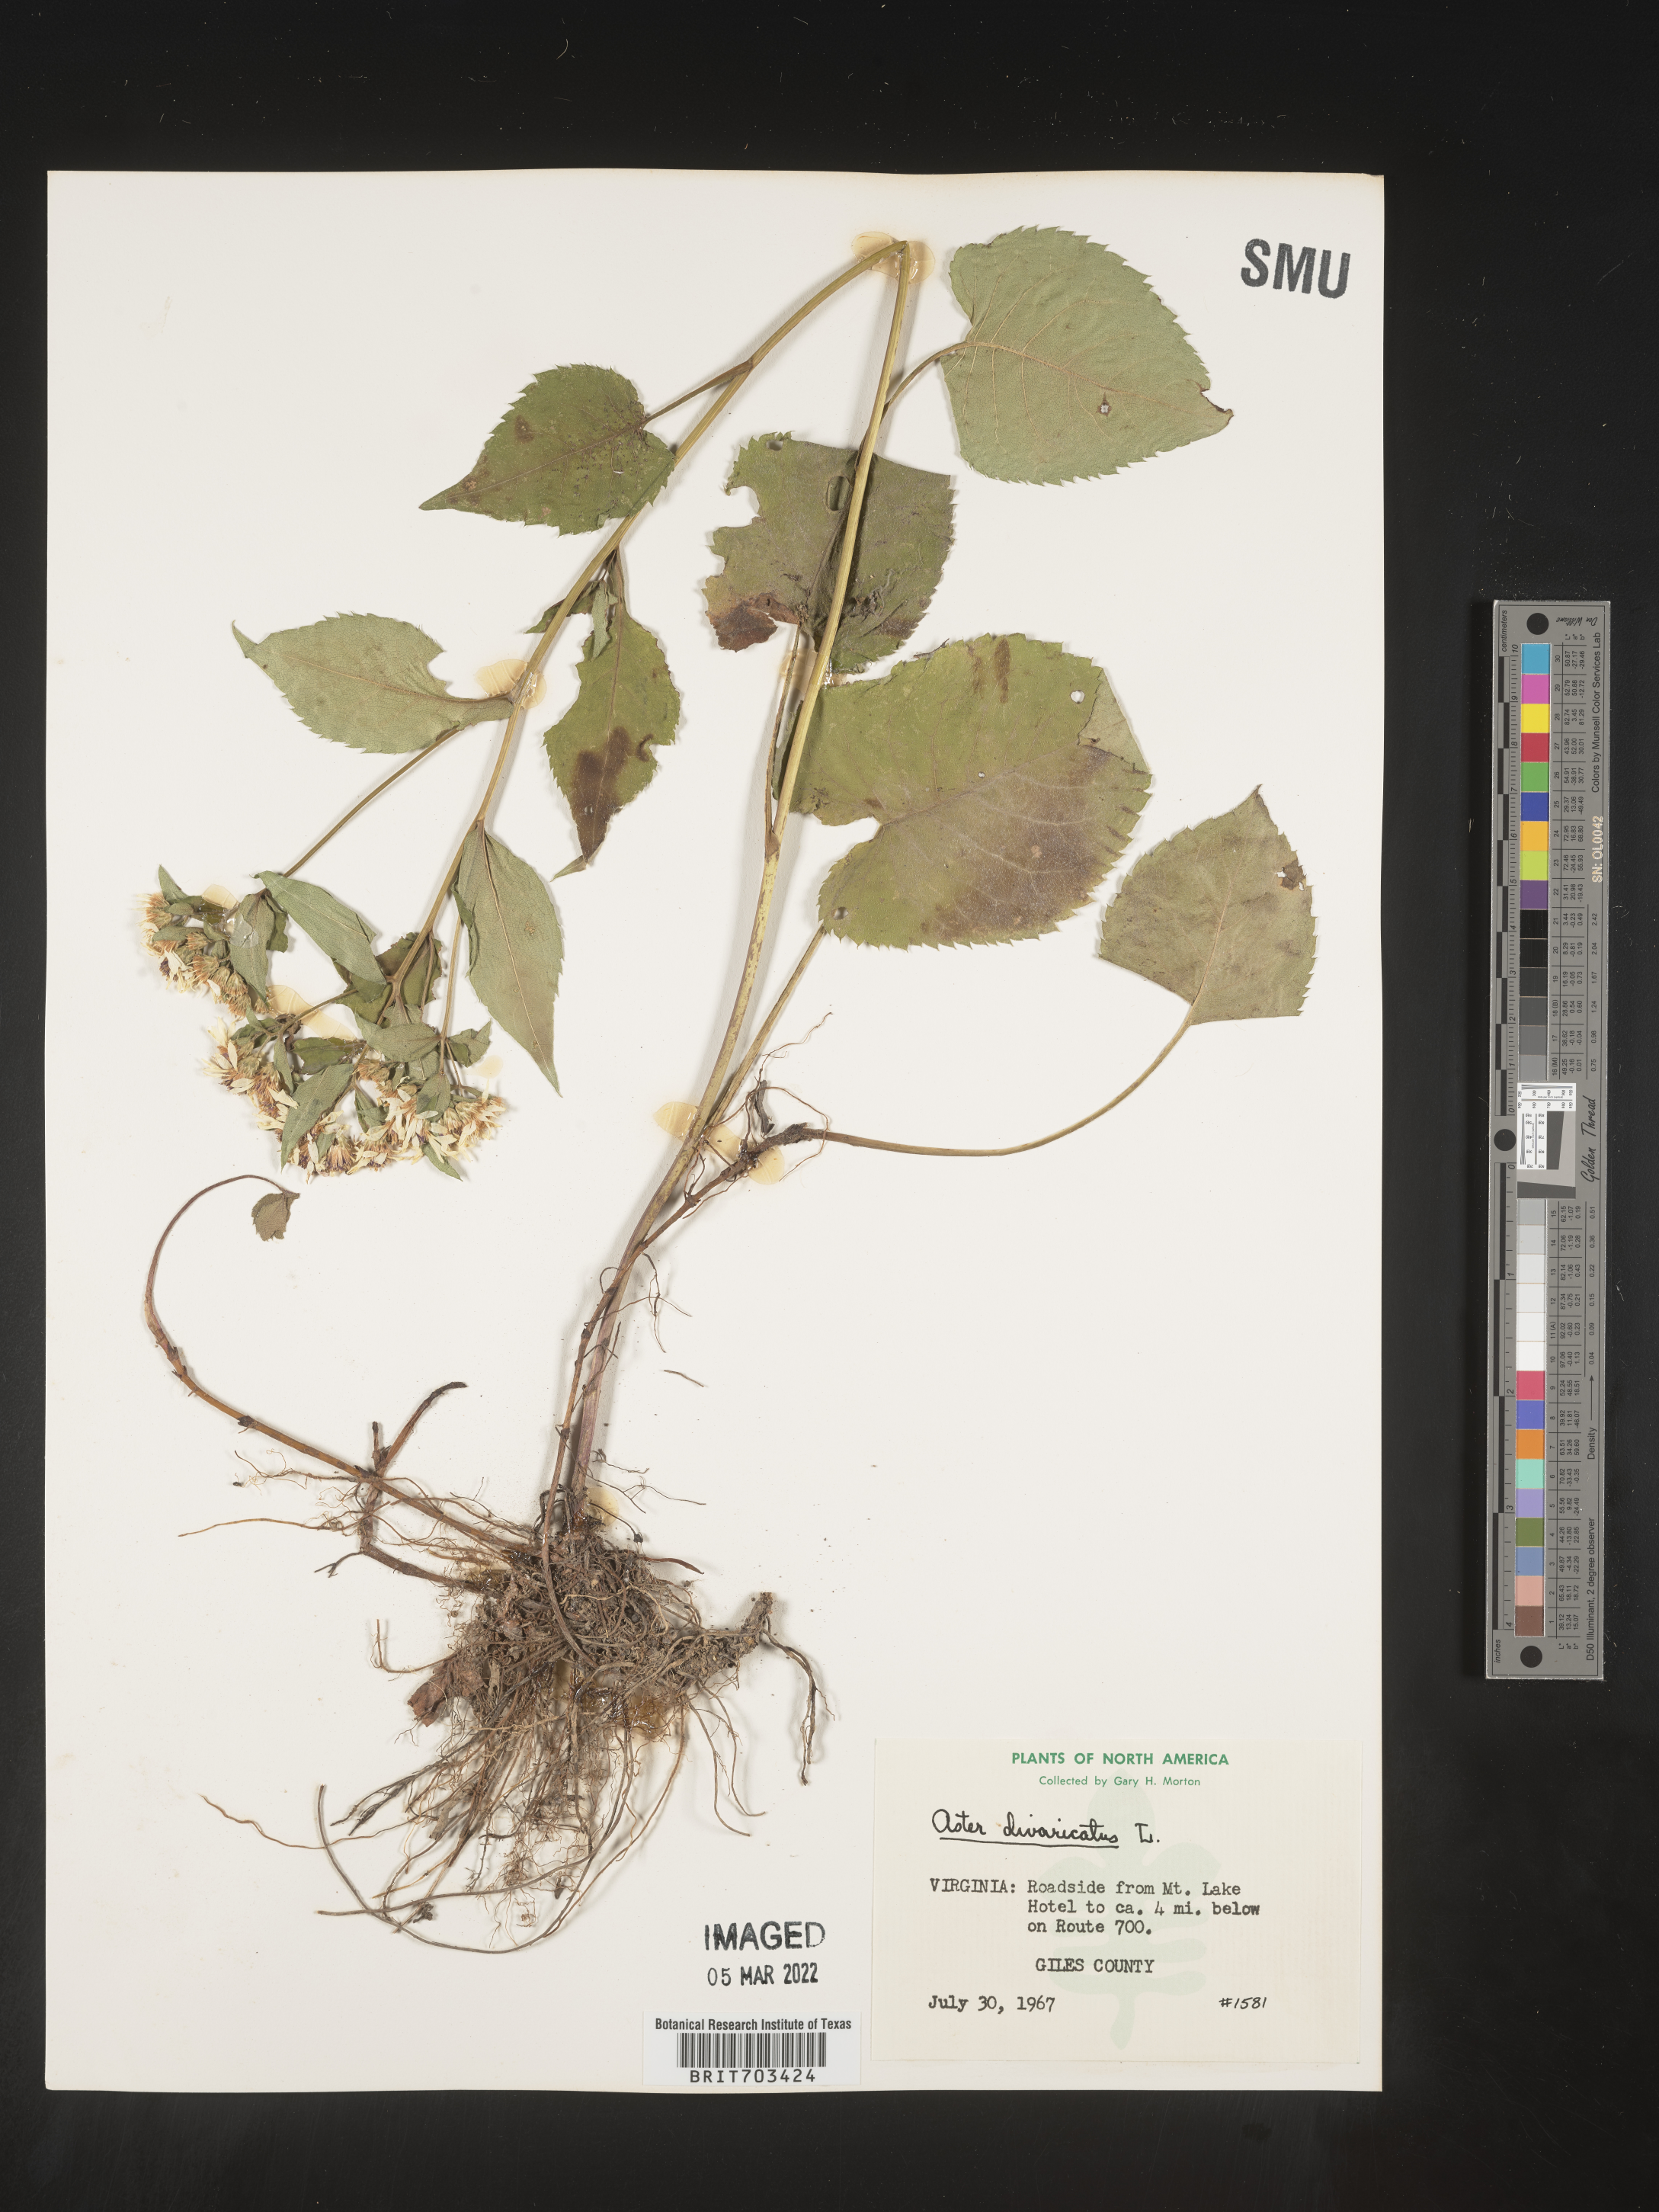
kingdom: Plantae
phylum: Tracheophyta
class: Magnoliopsida
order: Asterales
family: Asteraceae
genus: Eurybia
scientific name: Eurybia divaricata
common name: White wood aster
